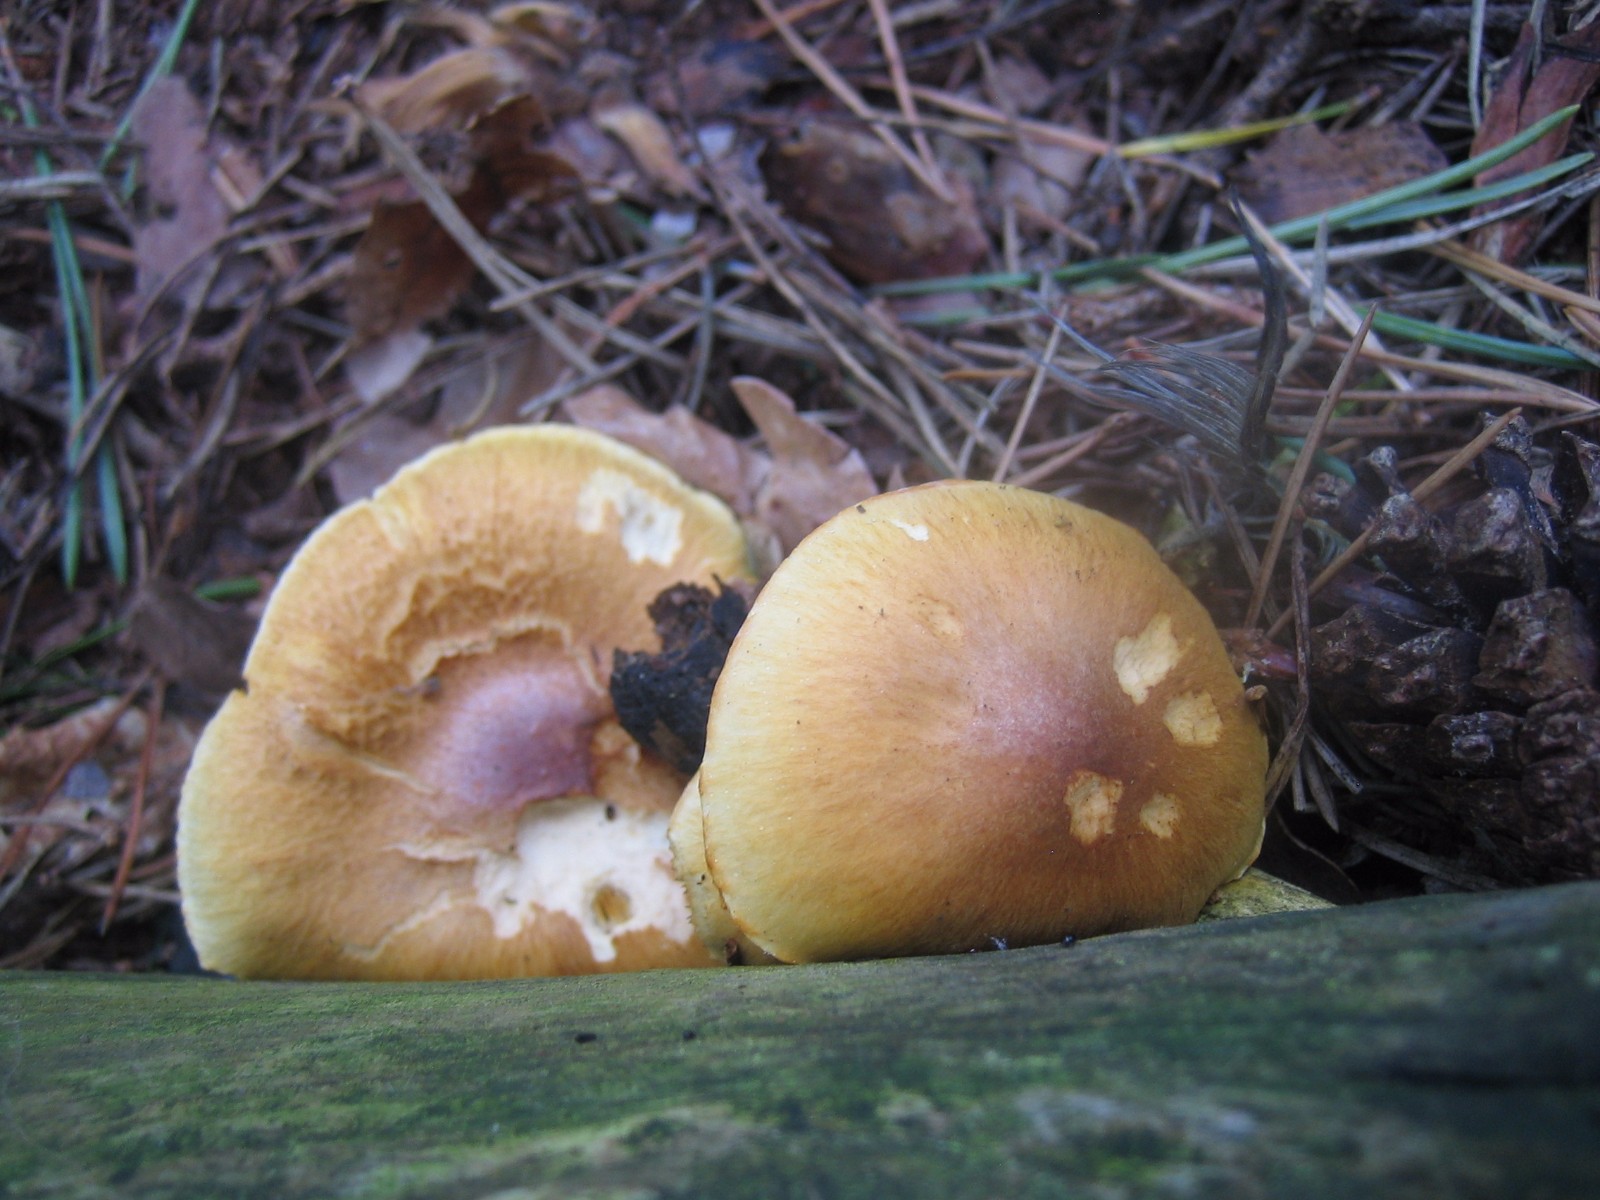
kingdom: Fungi
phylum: Basidiomycota
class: Agaricomycetes
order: Agaricales
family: Hymenogastraceae
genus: Gymnopilus
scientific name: Gymnopilus penetrans
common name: plettet flammehat
